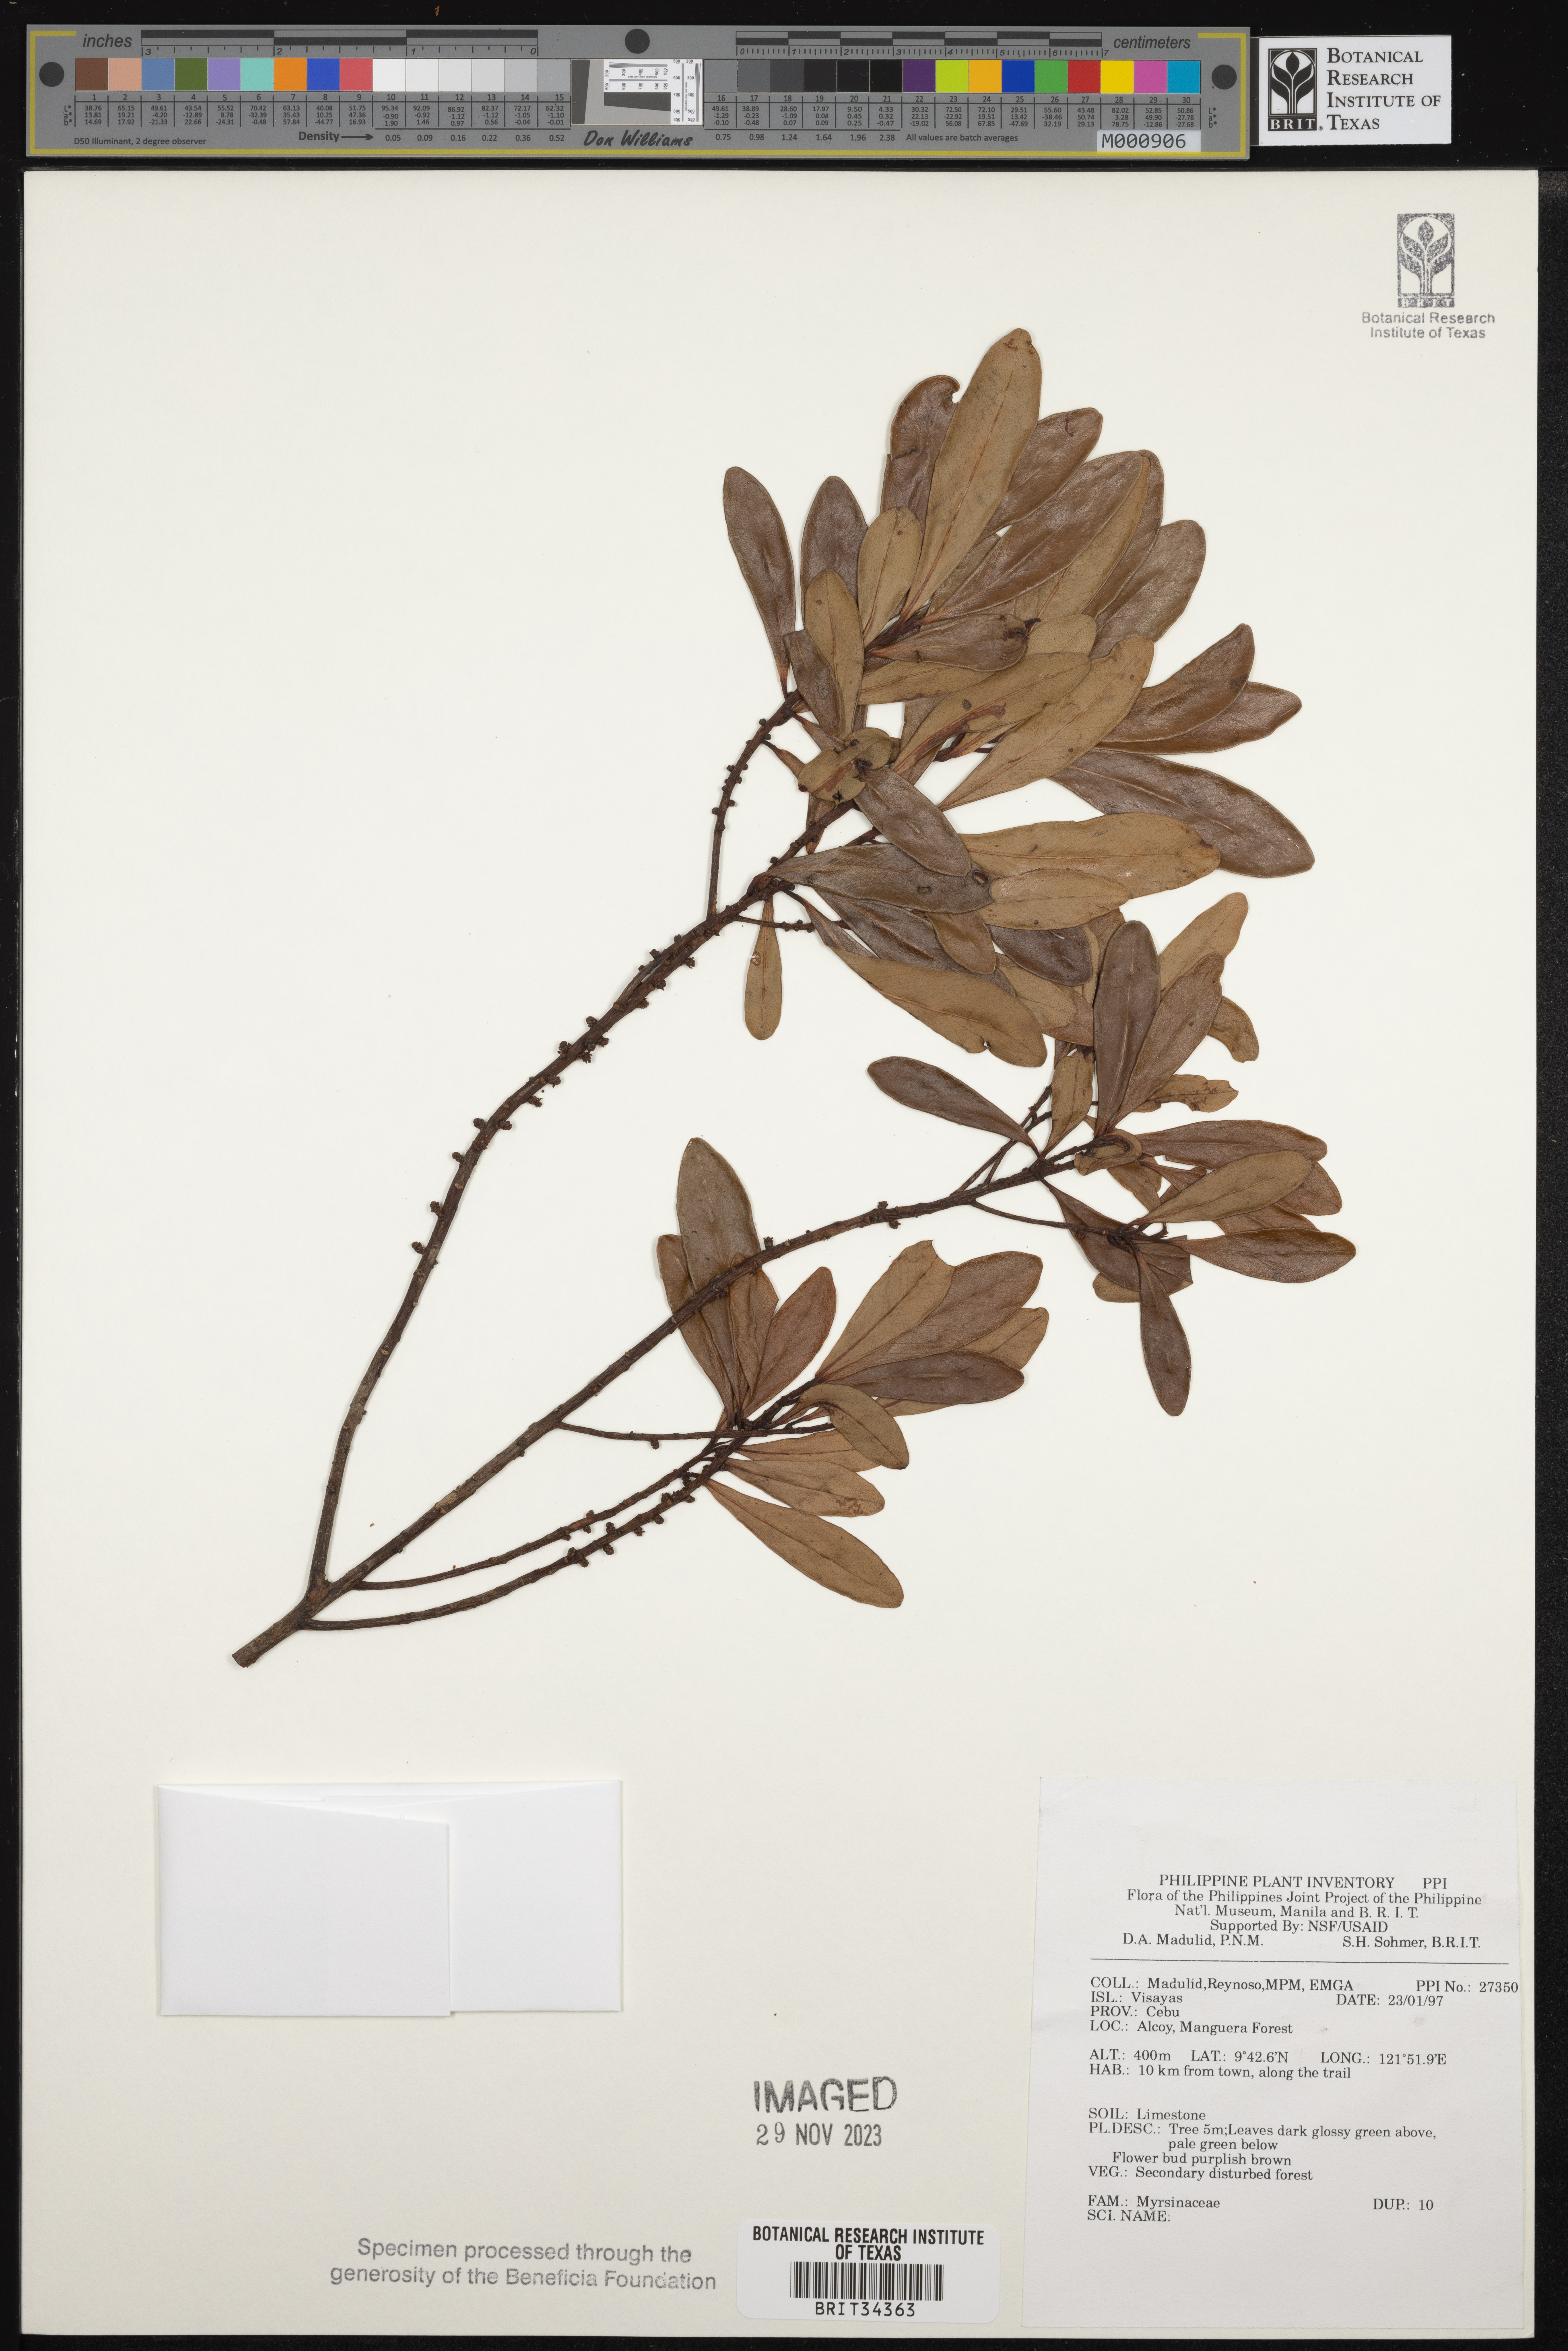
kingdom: Plantae
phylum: Tracheophyta
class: Magnoliopsida
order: Ericales
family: Primulaceae
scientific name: Primulaceae
